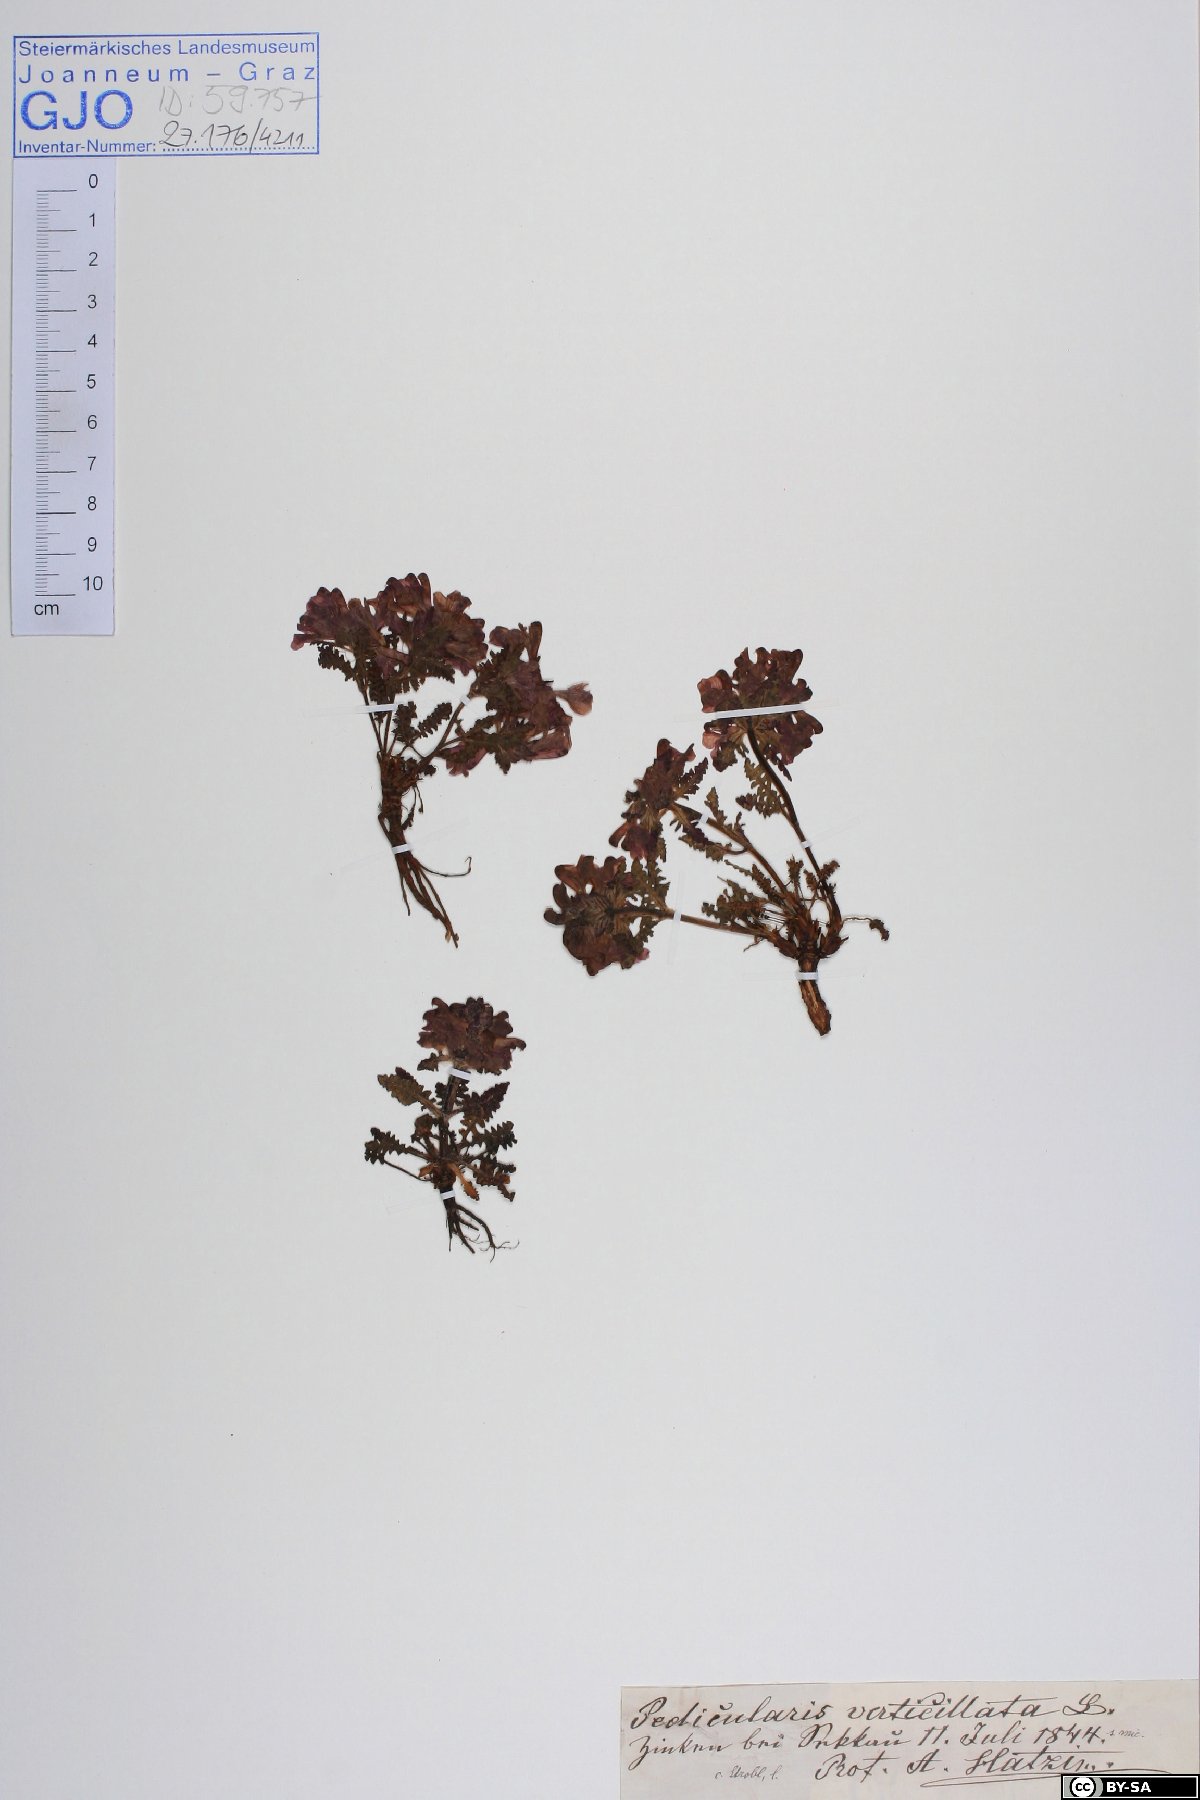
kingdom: Plantae
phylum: Tracheophyta
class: Magnoliopsida
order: Lamiales
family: Orobanchaceae
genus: Pedicularis
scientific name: Pedicularis verticillata
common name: Whorled lousewort
